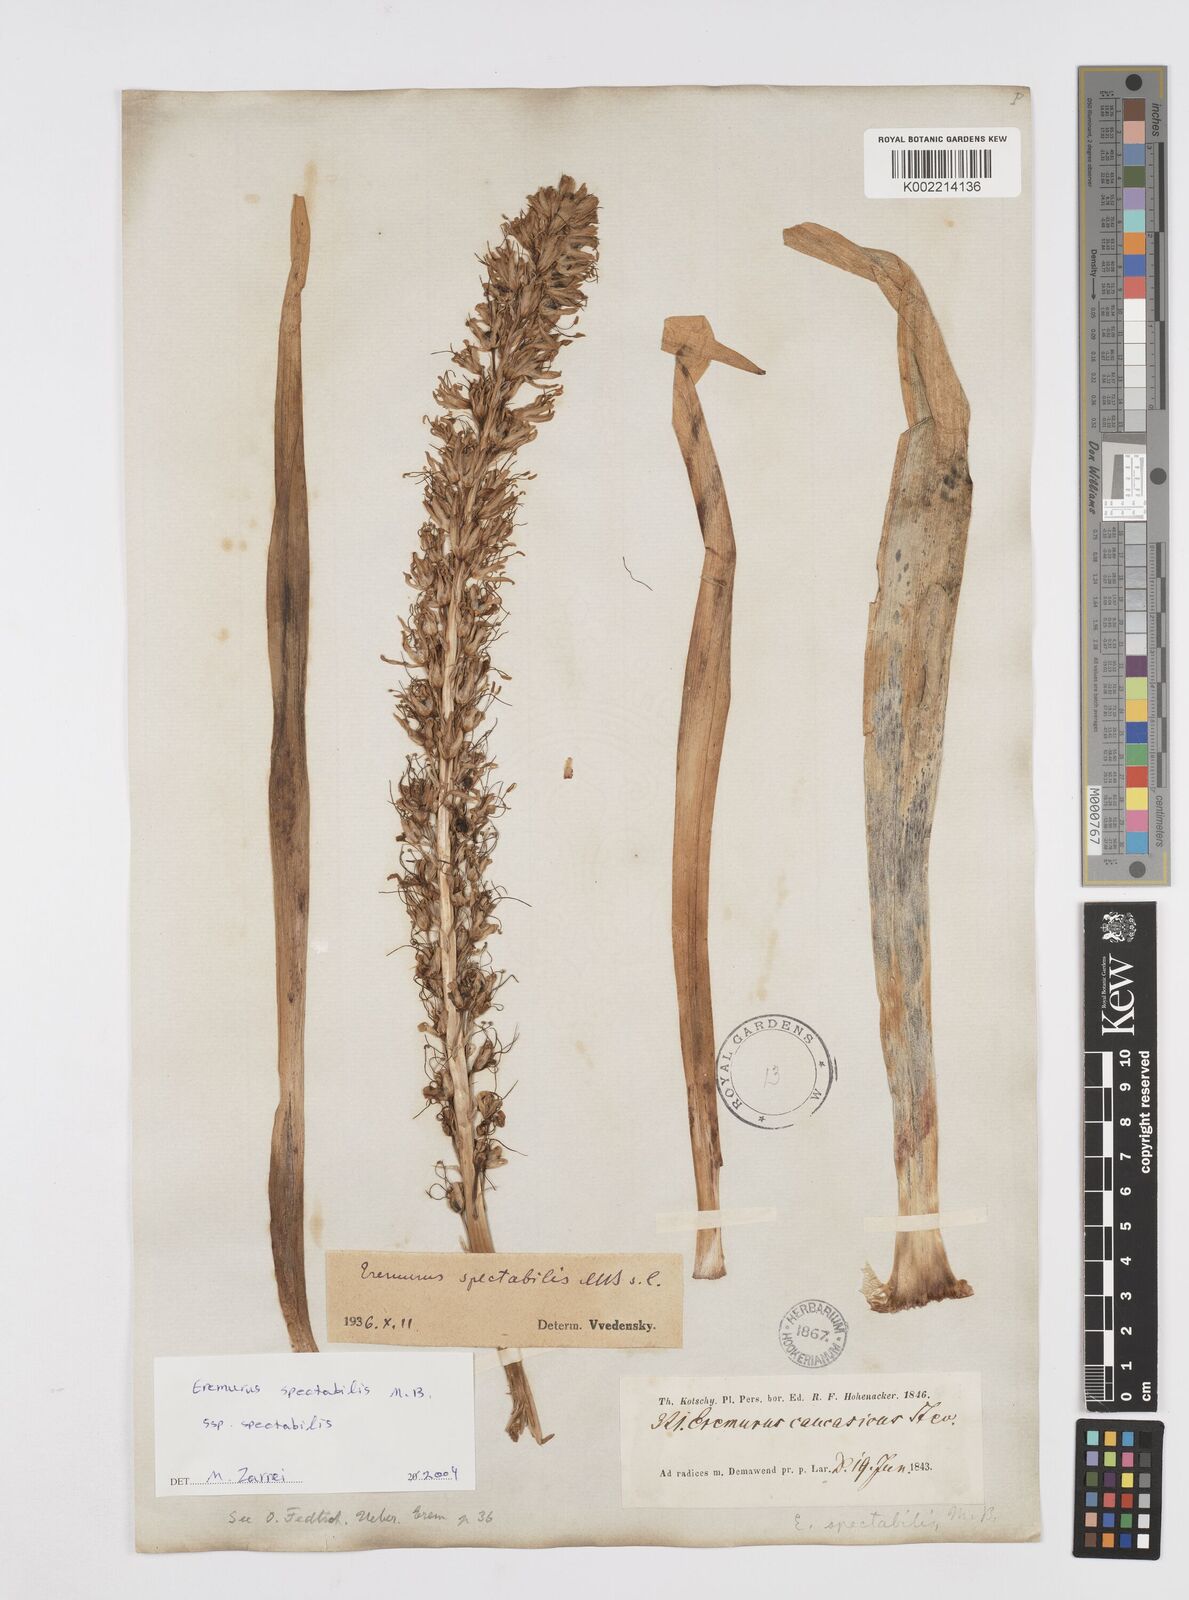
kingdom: Plantae
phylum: Tracheophyta
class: Liliopsida
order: Asparagales
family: Asphodelaceae
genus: Eremurus
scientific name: Eremurus spectabilis
